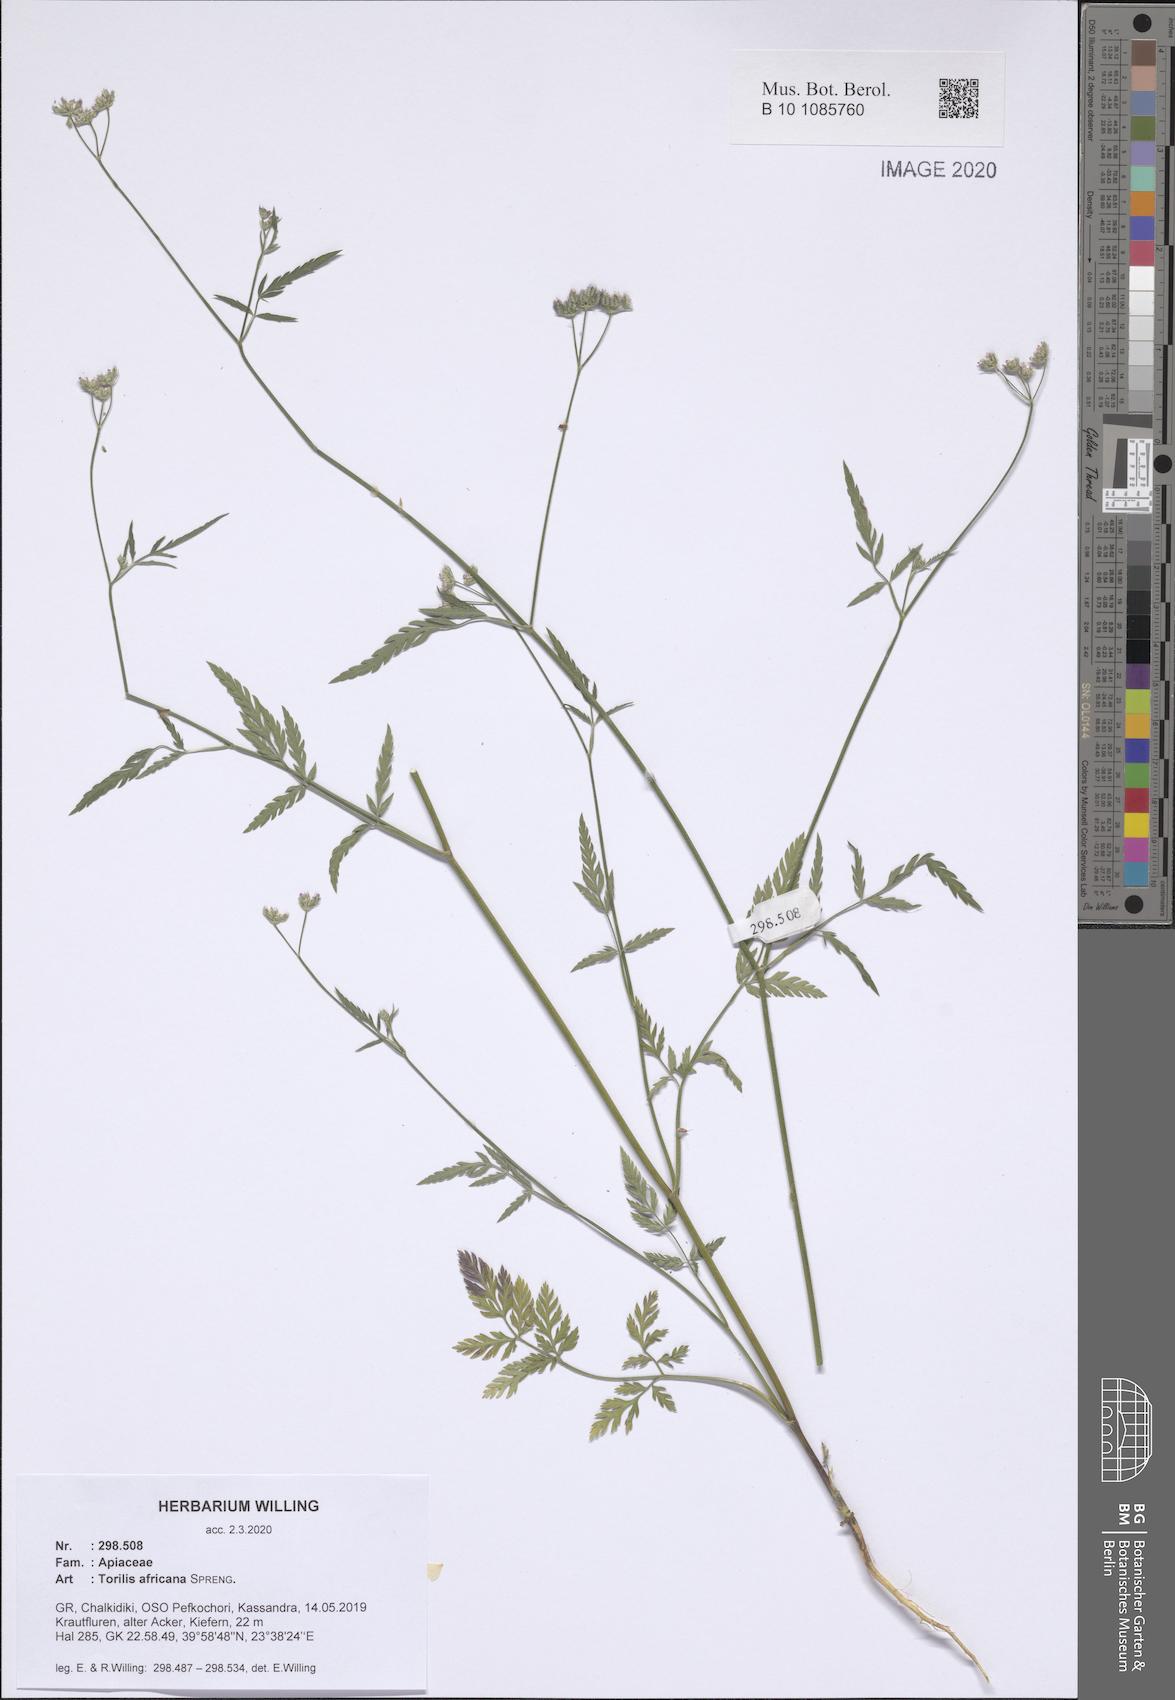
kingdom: Plantae
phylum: Tracheophyta
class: Magnoliopsida
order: Apiales
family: Apiaceae
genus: Torilis
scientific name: Torilis africana
